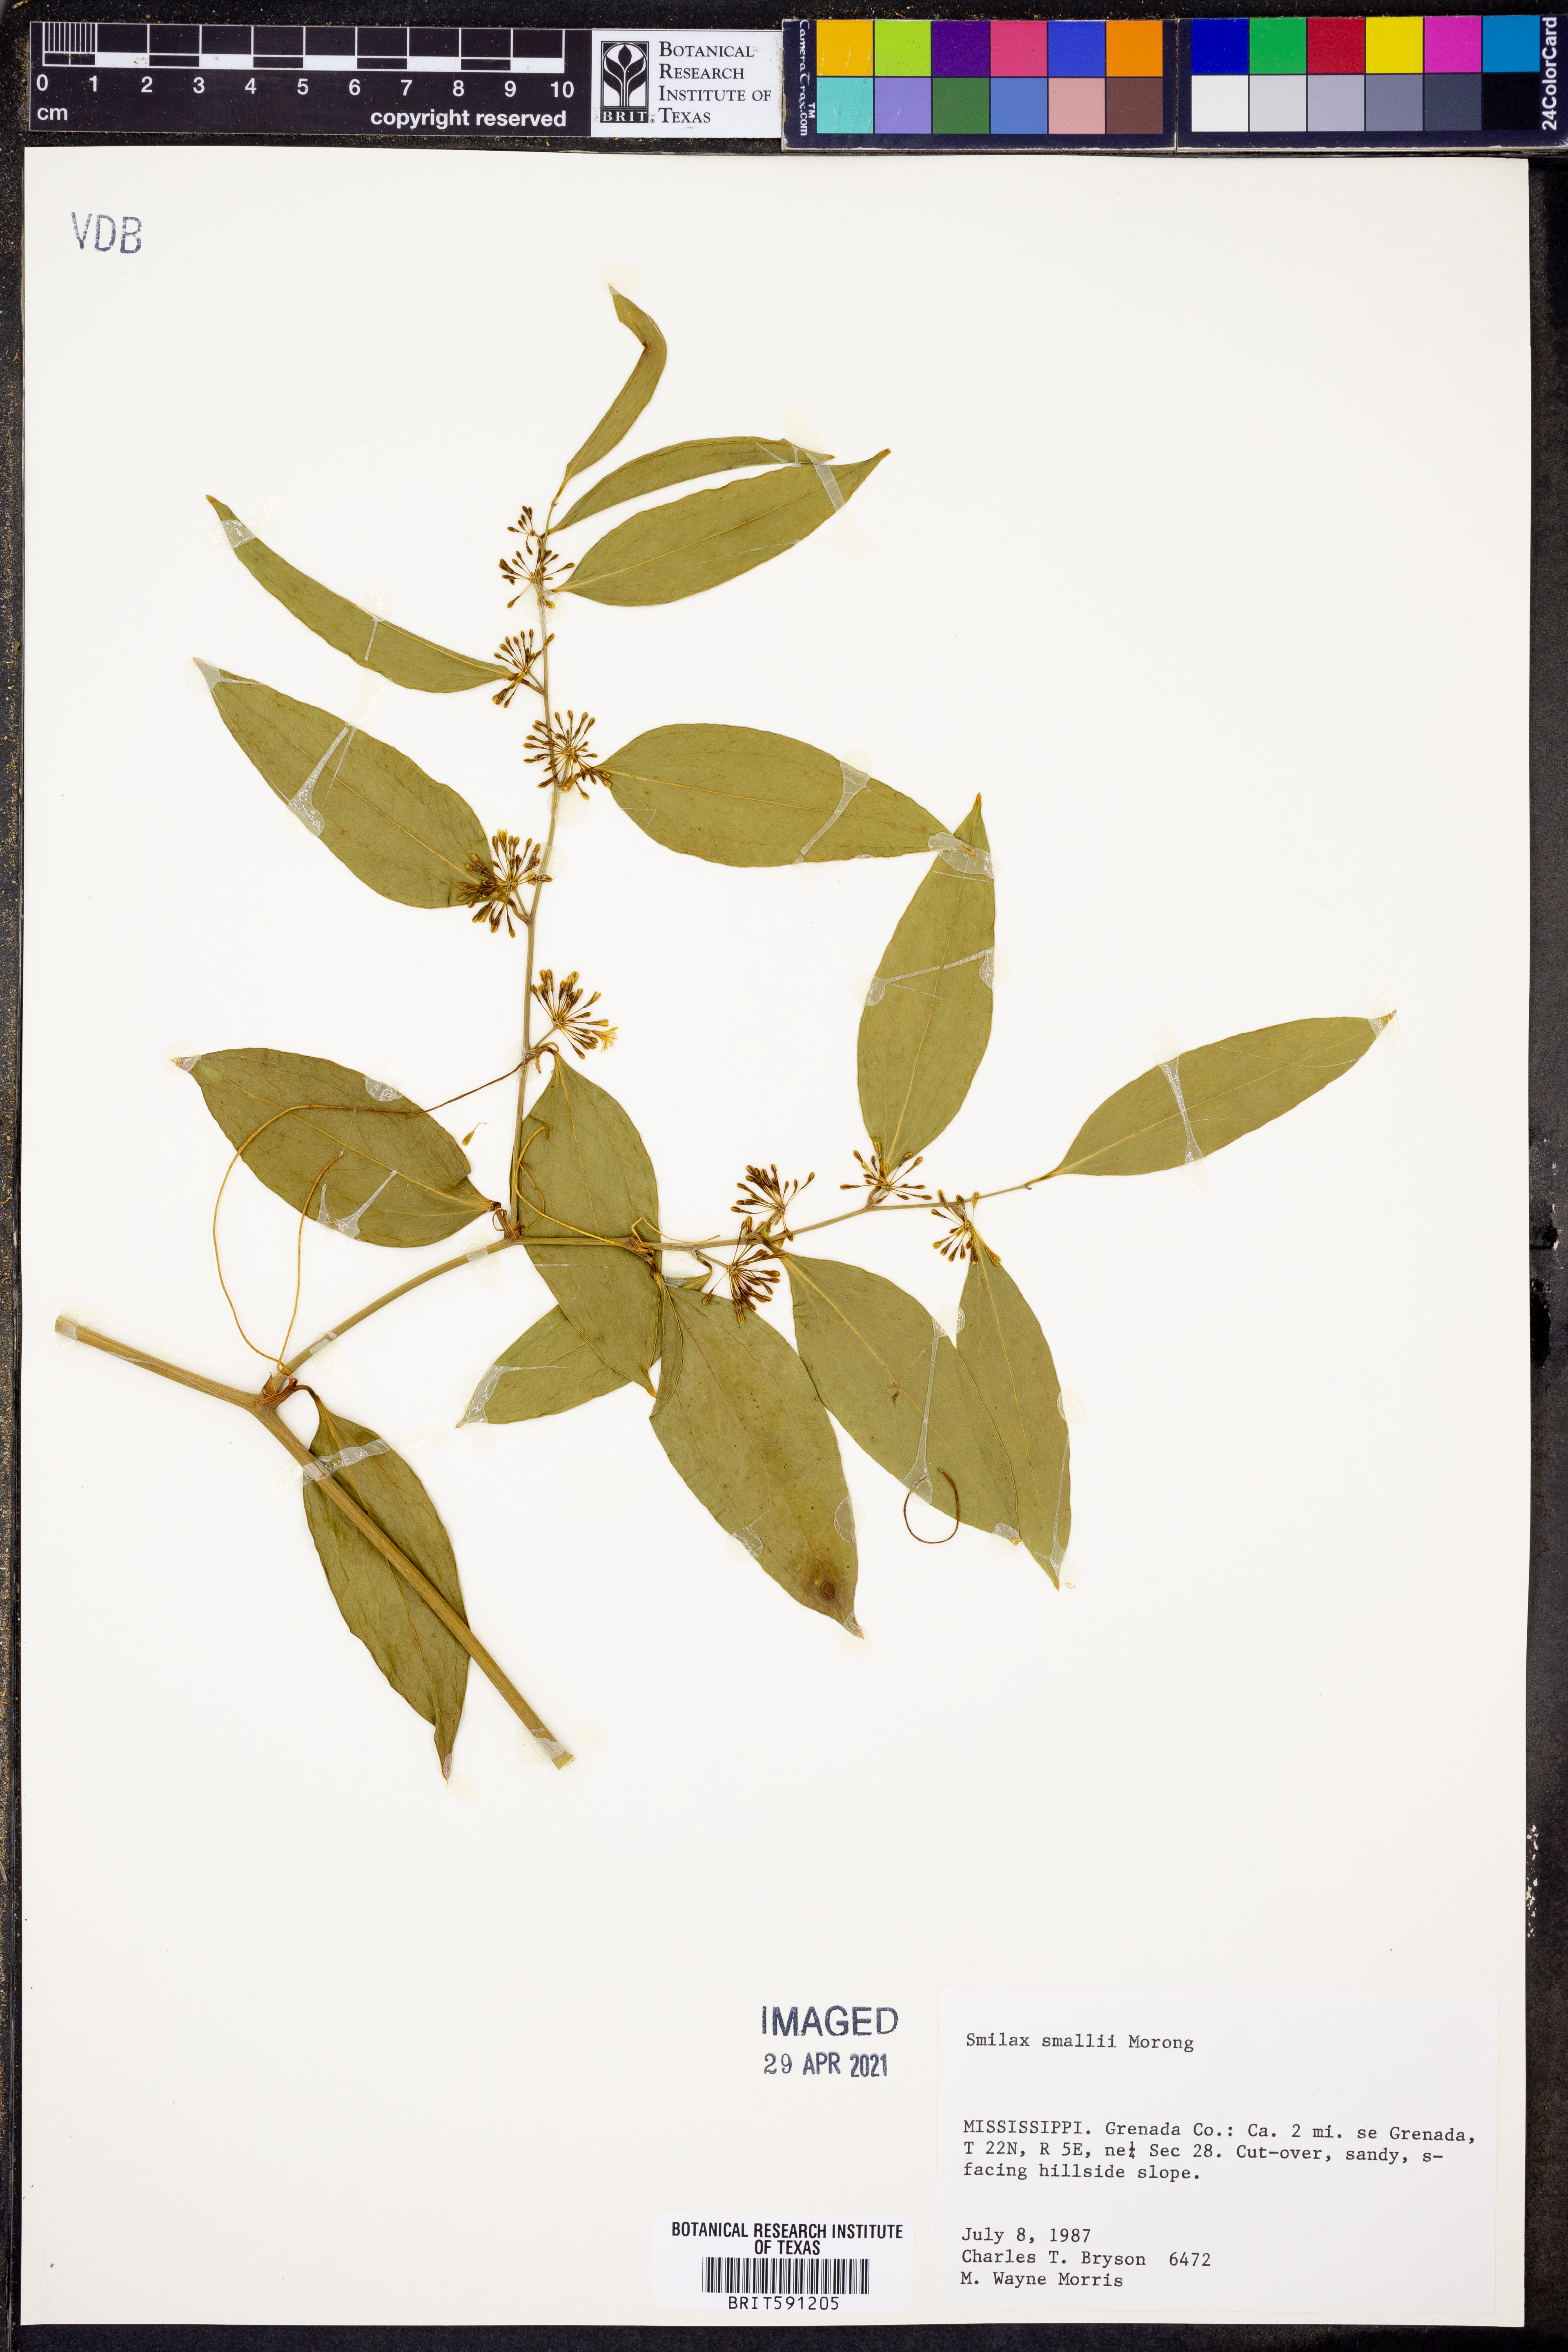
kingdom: Plantae
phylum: Tracheophyta
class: Liliopsida
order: Liliales
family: Smilacaceae
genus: Smilax
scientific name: Smilax maritima
